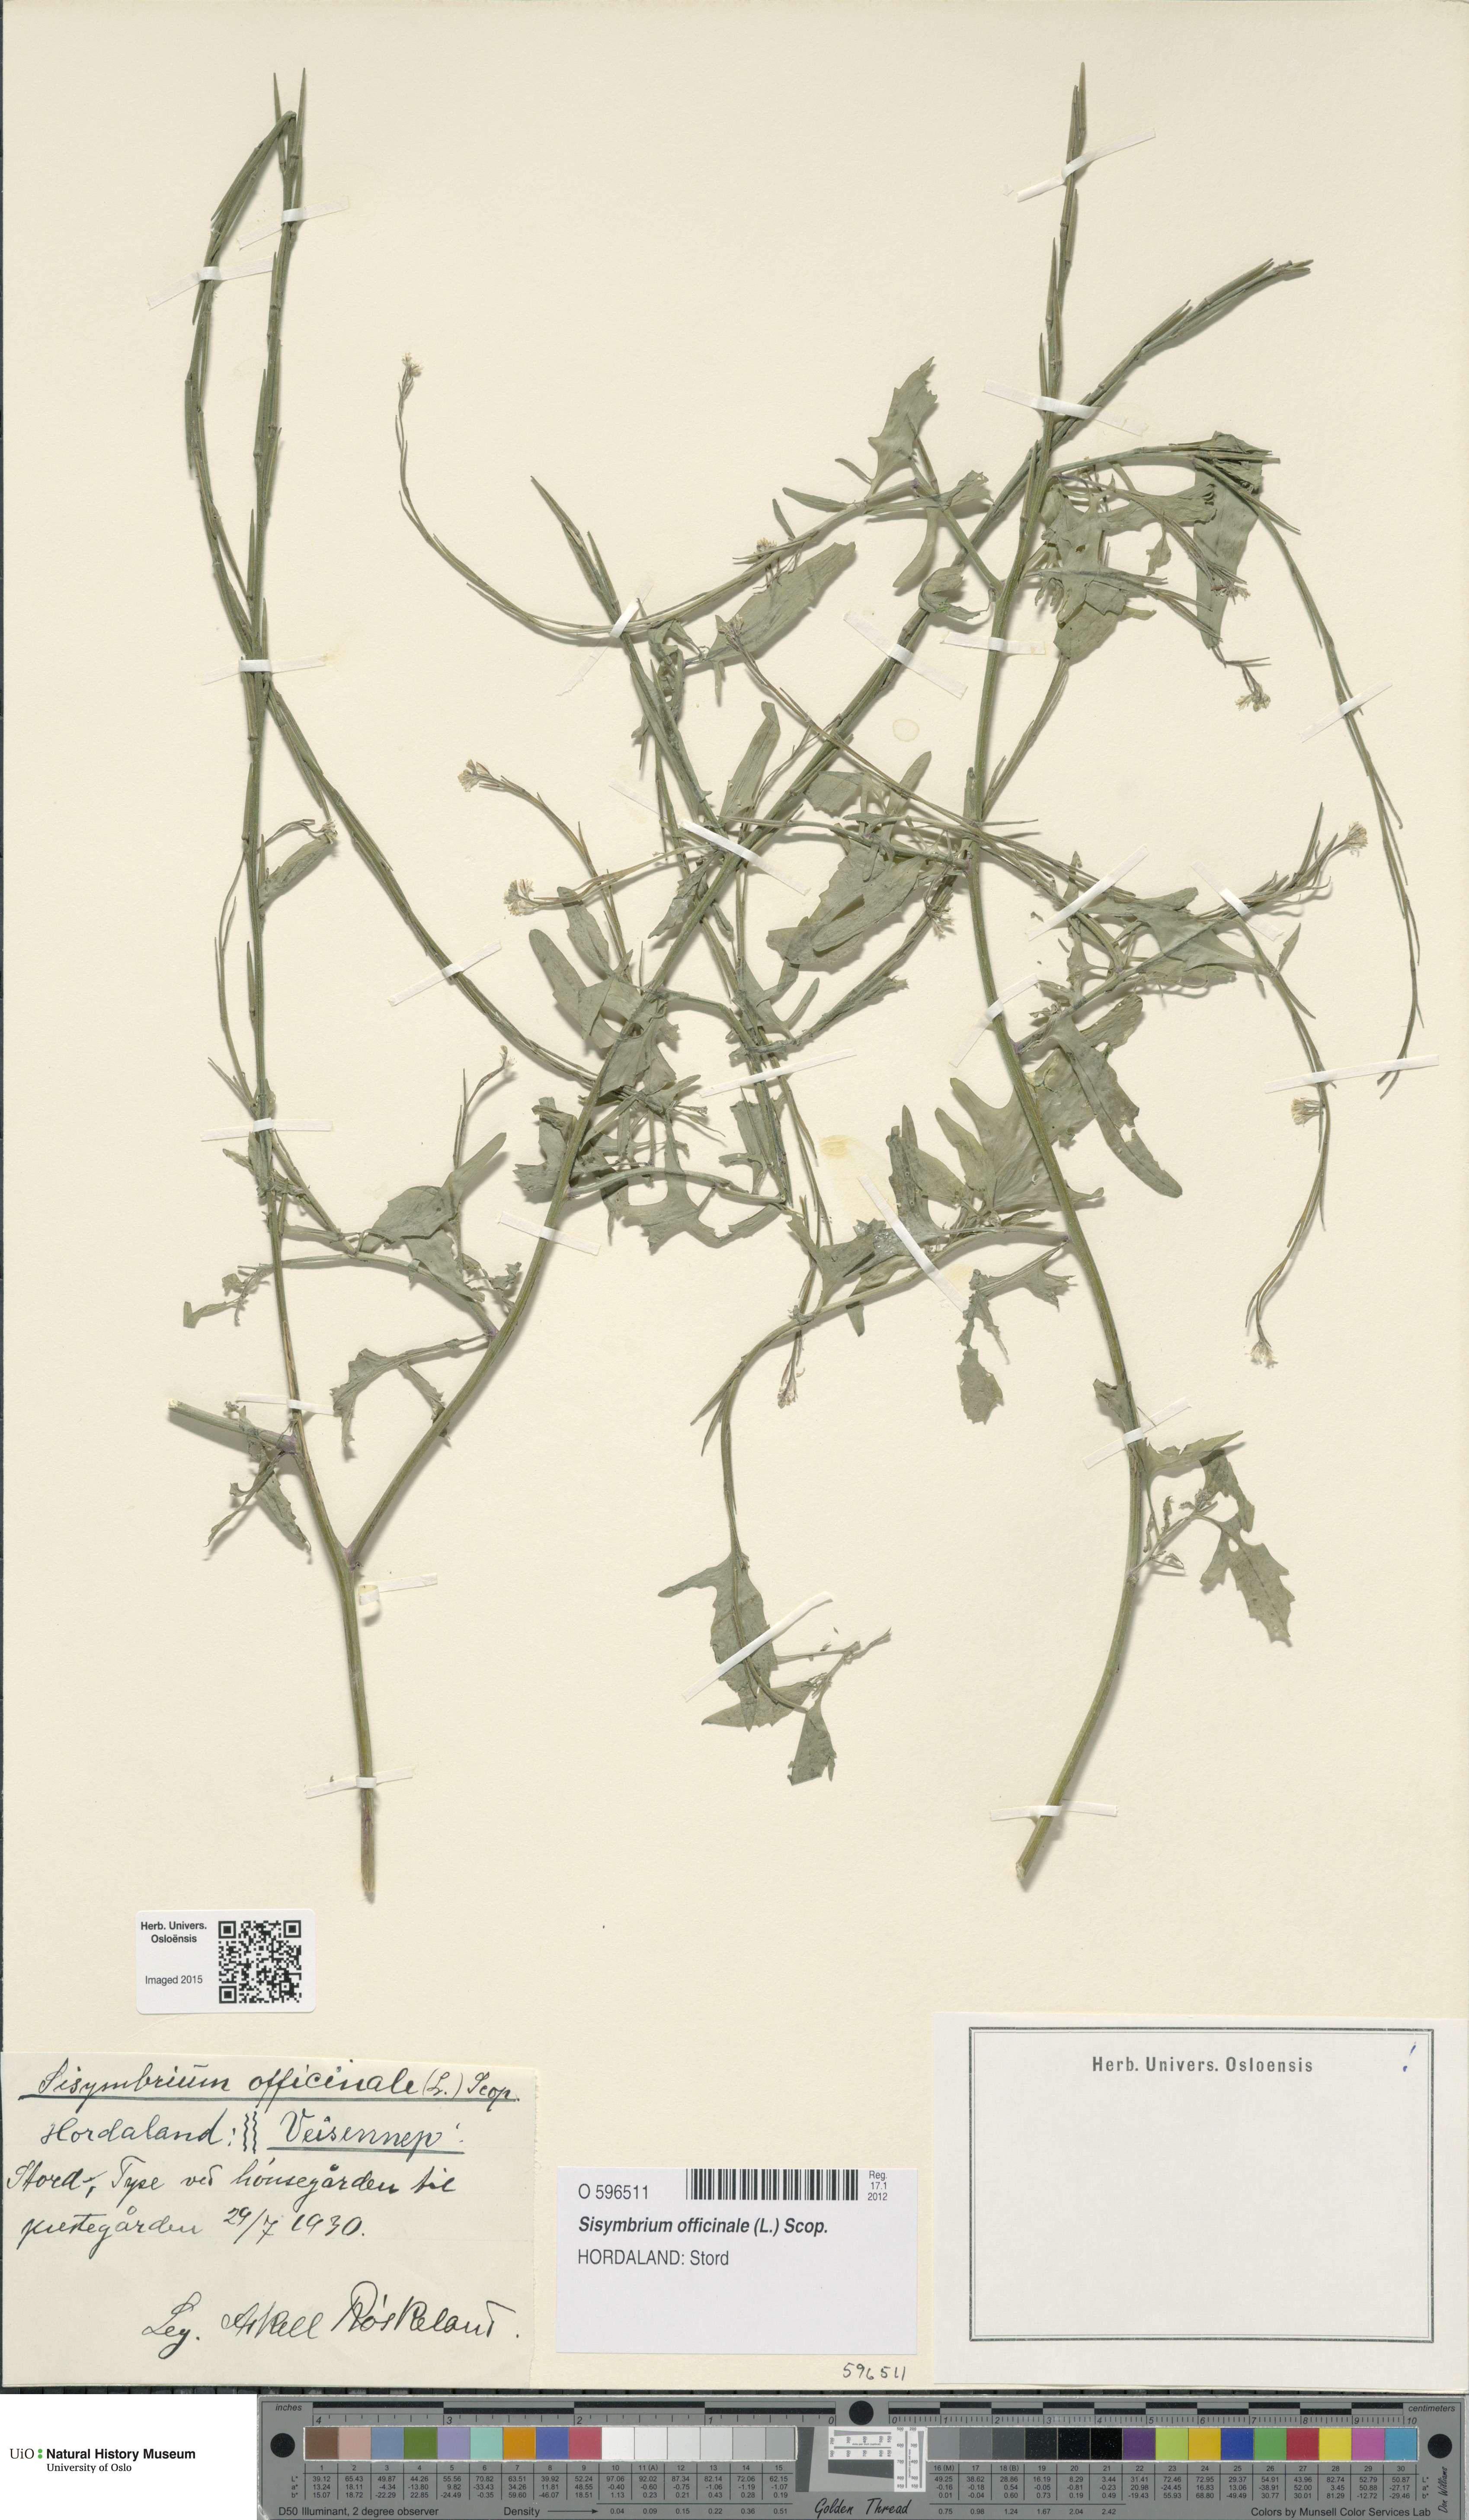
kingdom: Plantae
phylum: Tracheophyta
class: Magnoliopsida
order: Brassicales
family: Brassicaceae
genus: Sisymbrium
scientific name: Sisymbrium officinale
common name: Hedge mustard
